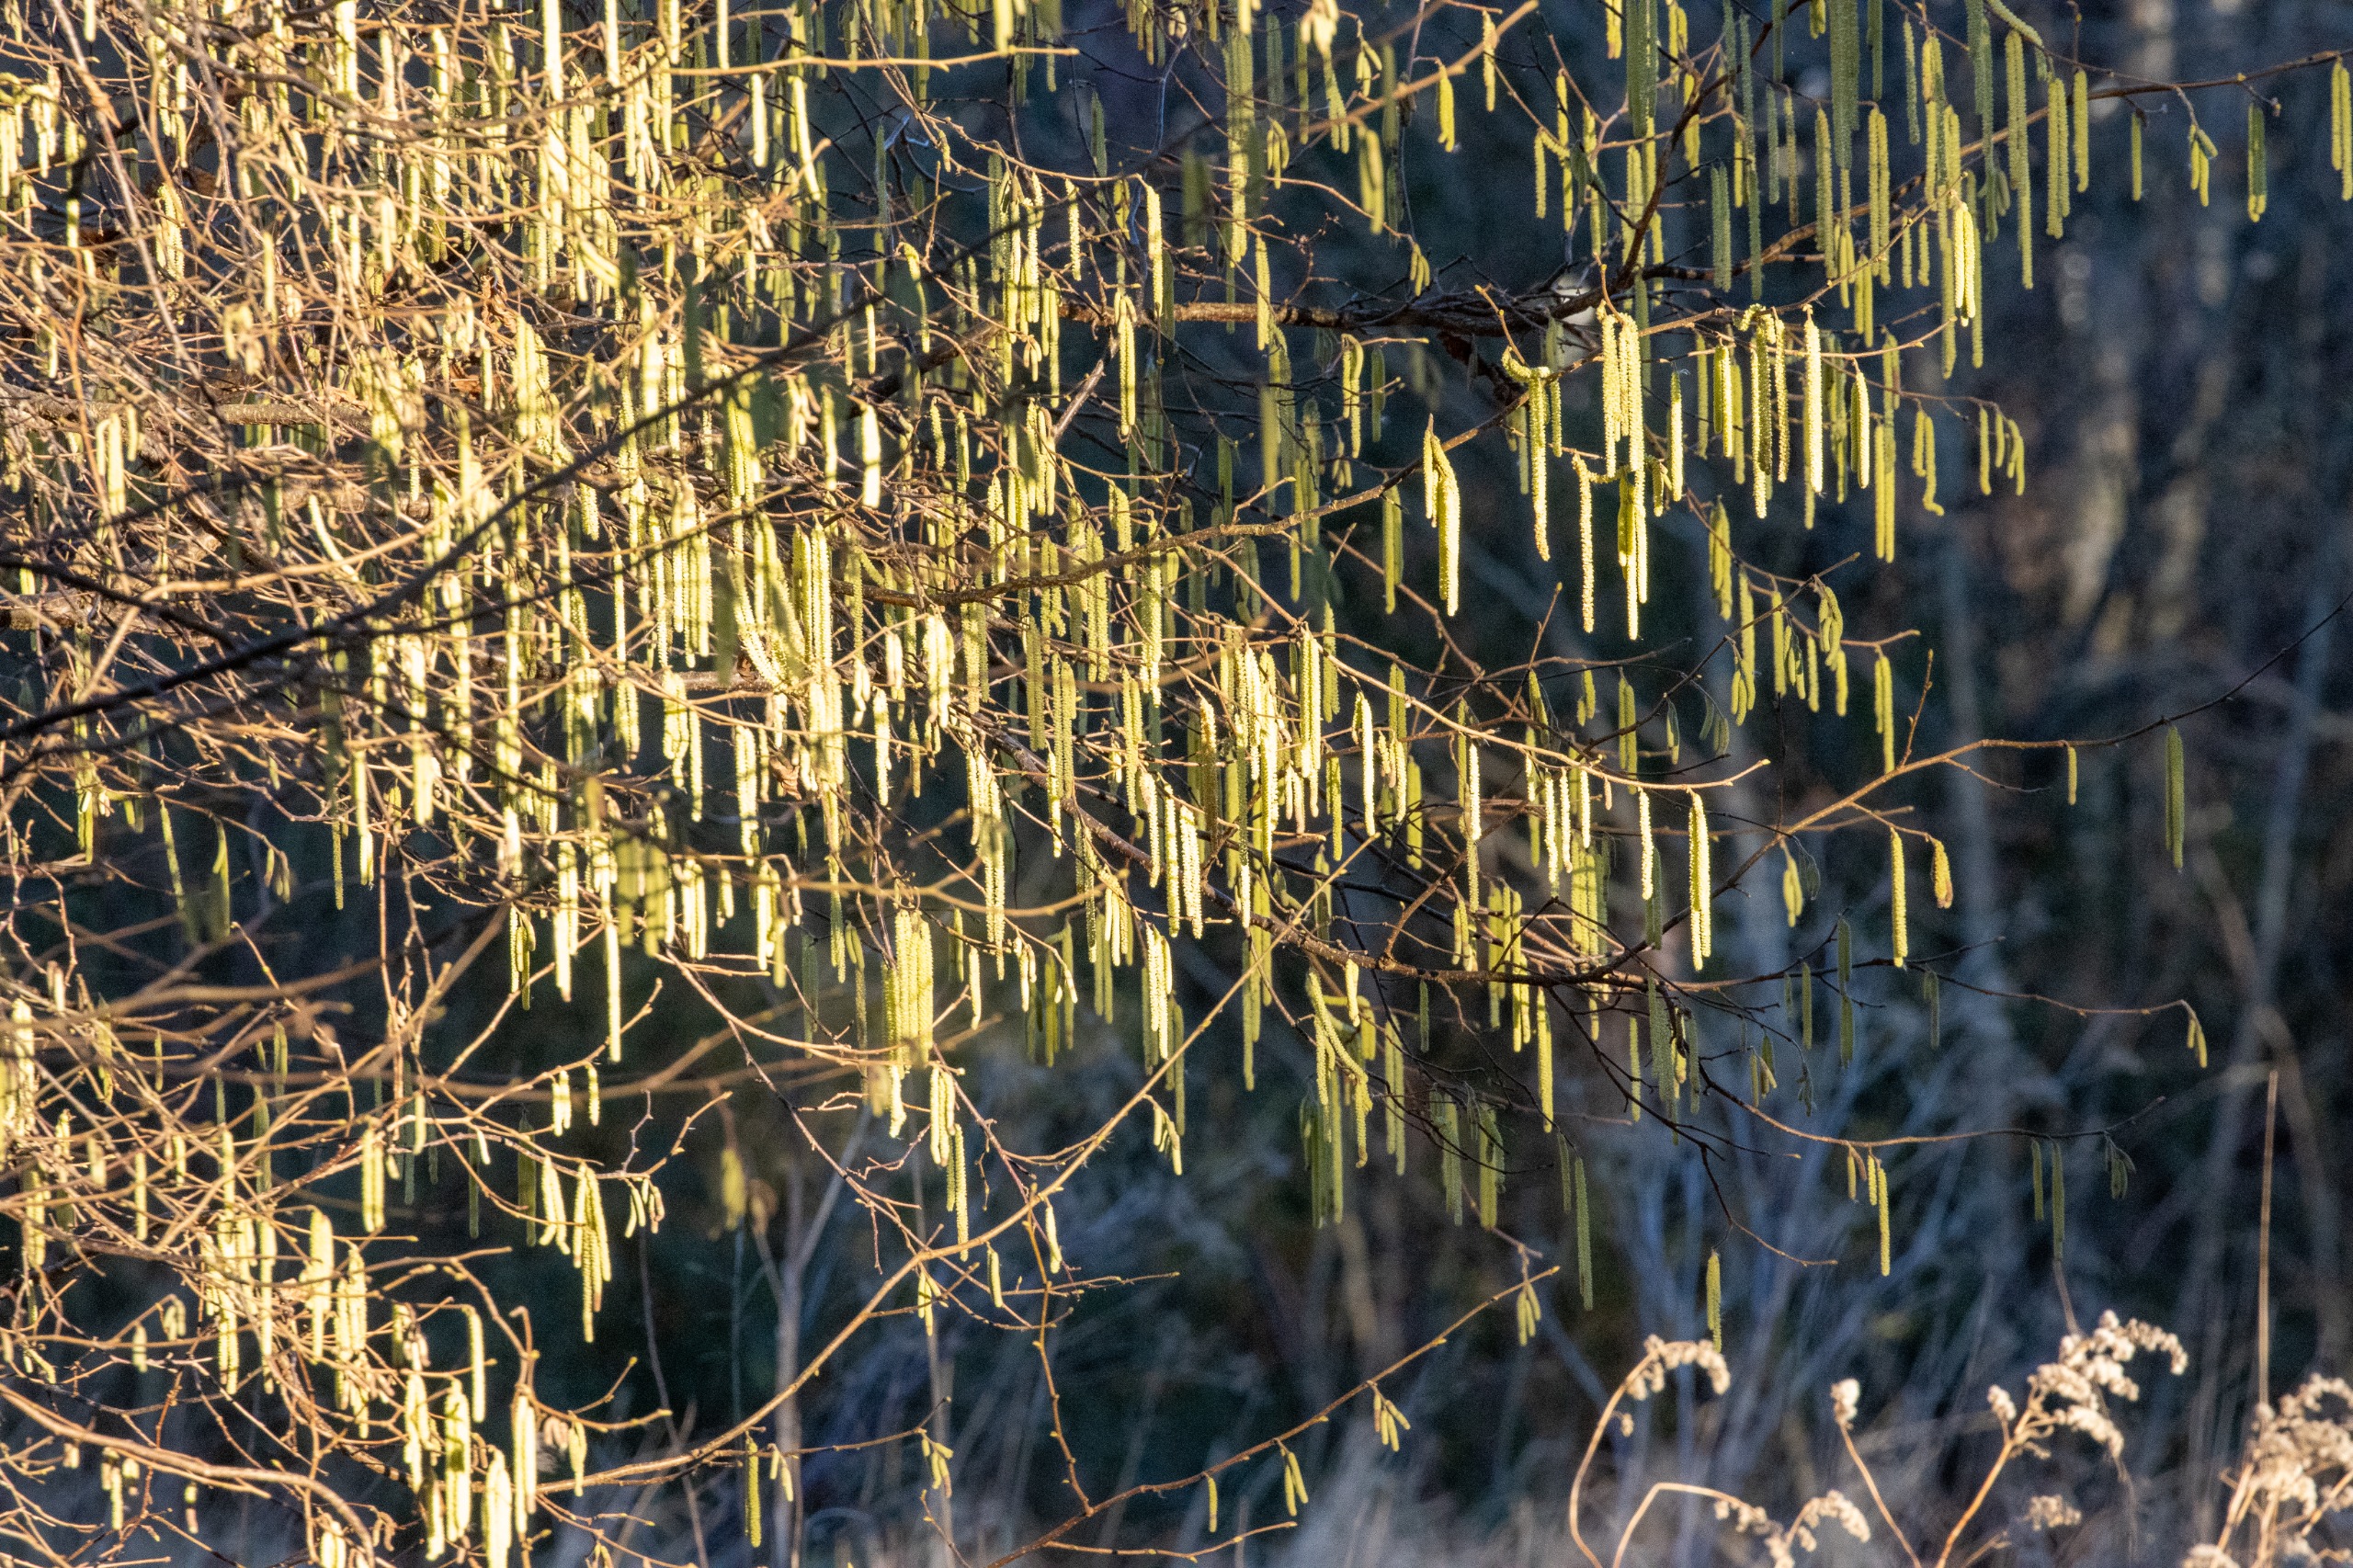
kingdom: Plantae
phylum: Tracheophyta
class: Magnoliopsida
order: Fagales
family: Betulaceae
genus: Corylus
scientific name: Corylus avellana
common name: Hassel
